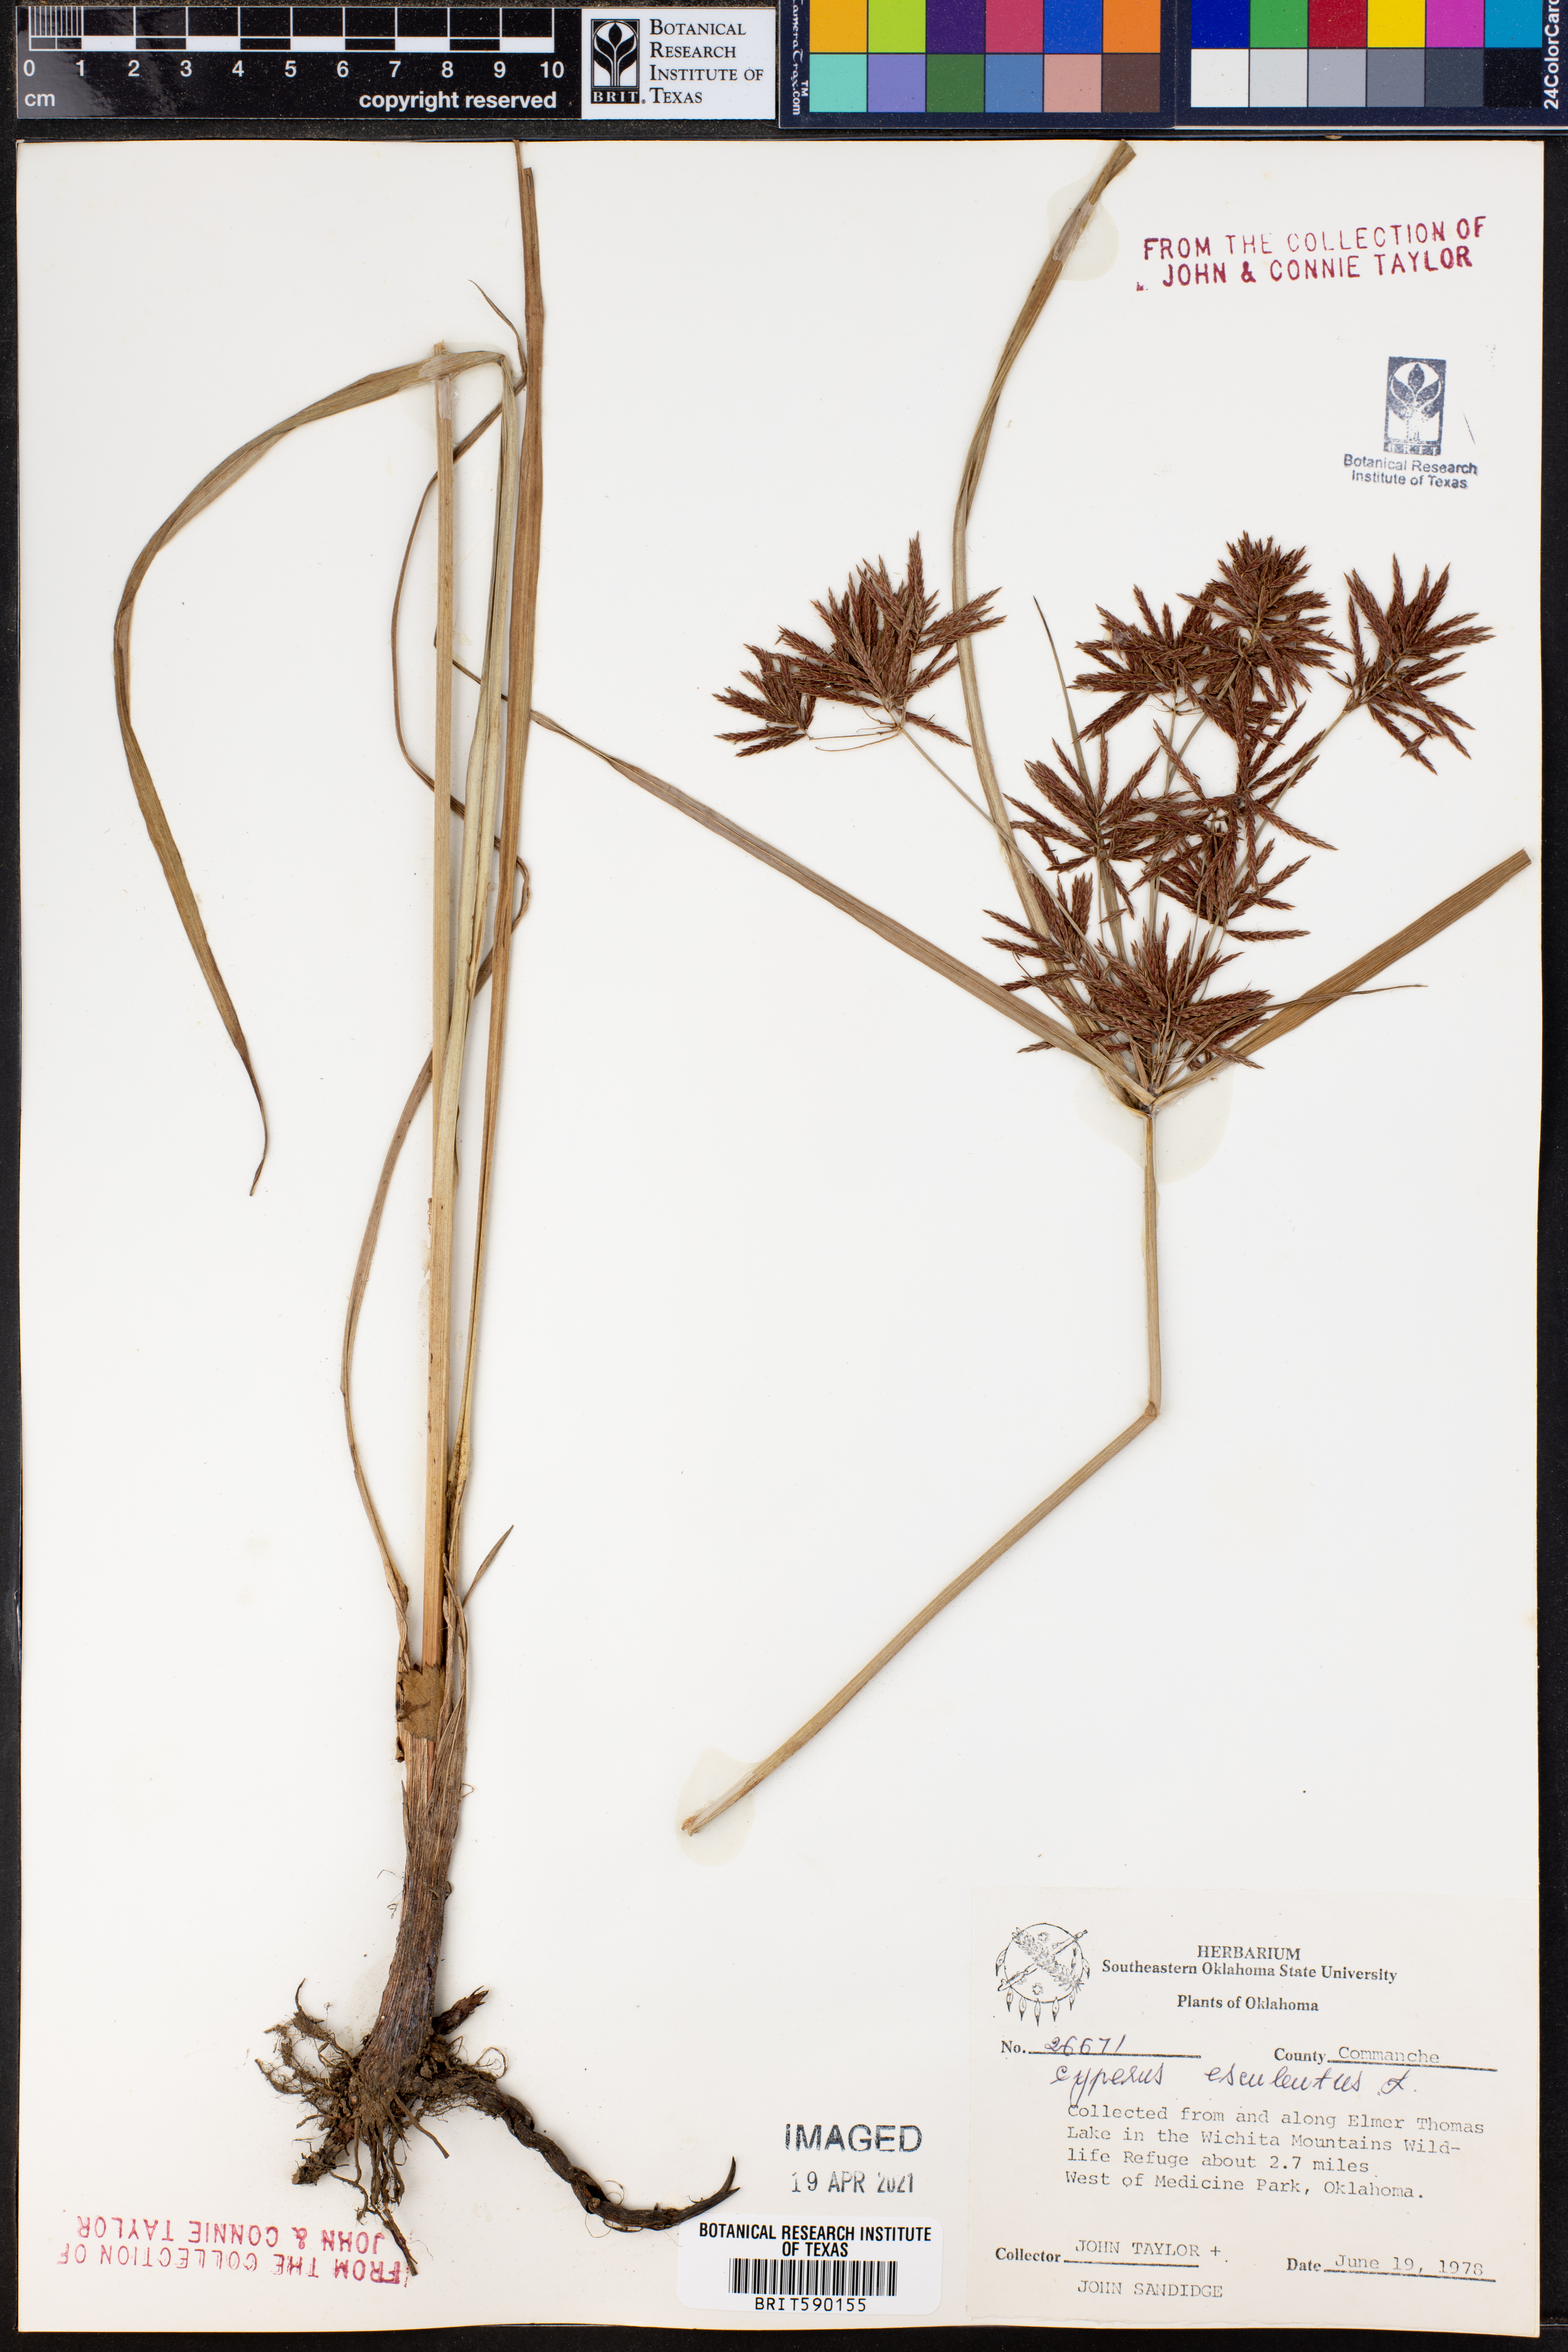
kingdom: Plantae
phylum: Tracheophyta
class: Liliopsida
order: Poales
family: Cyperaceae
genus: Cyperus
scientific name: Cyperus esculentus
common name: Yellow nutsedge
